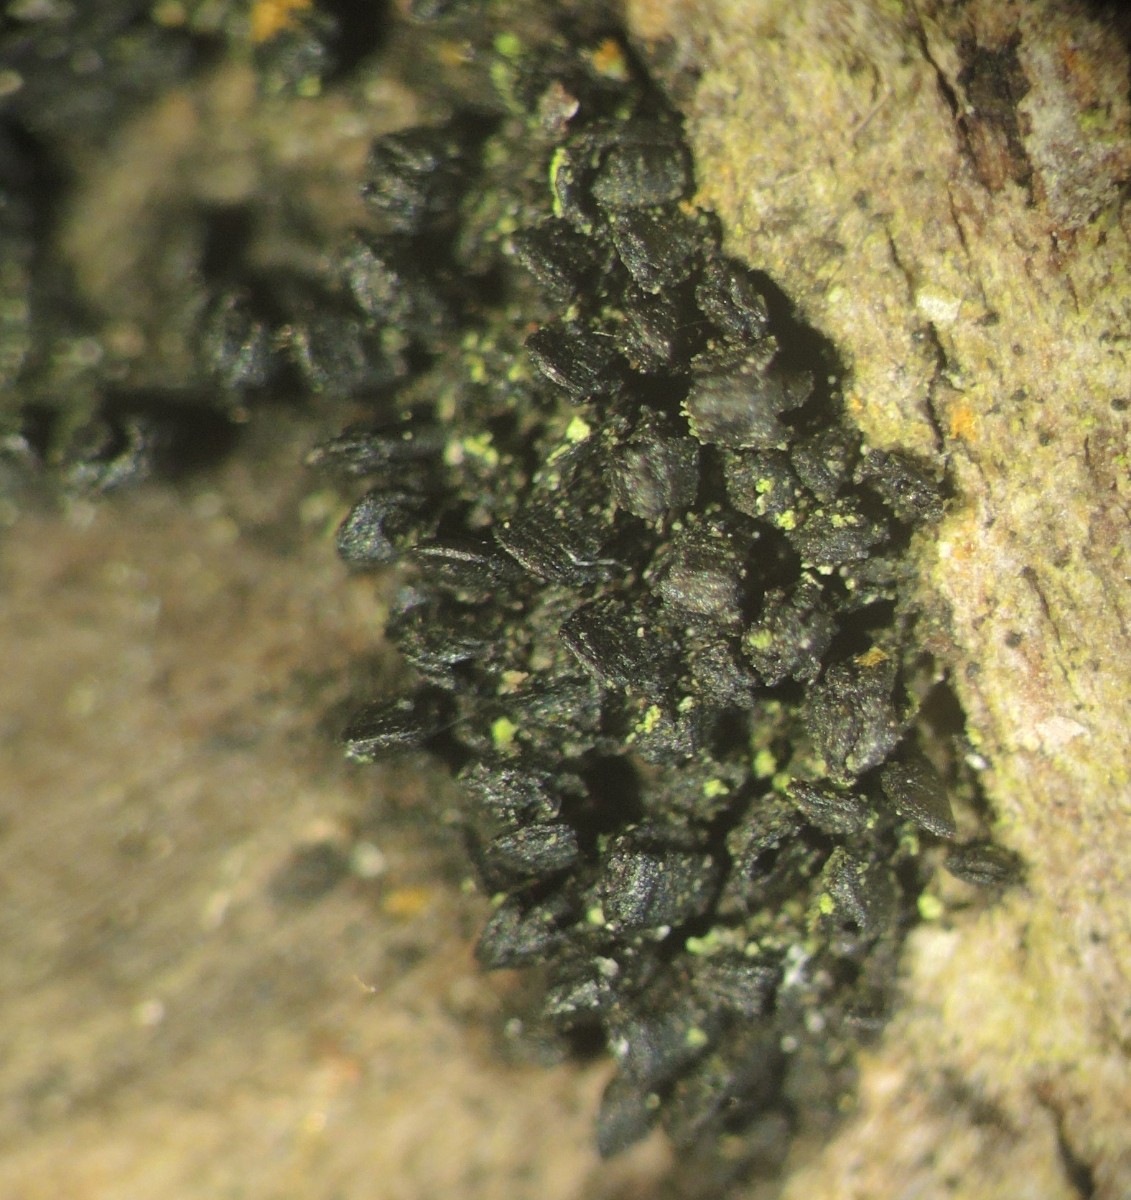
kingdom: Fungi
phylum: Ascomycota
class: Eurotiomycetes
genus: Glyphium
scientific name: Glyphium elatum
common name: kuløkse
